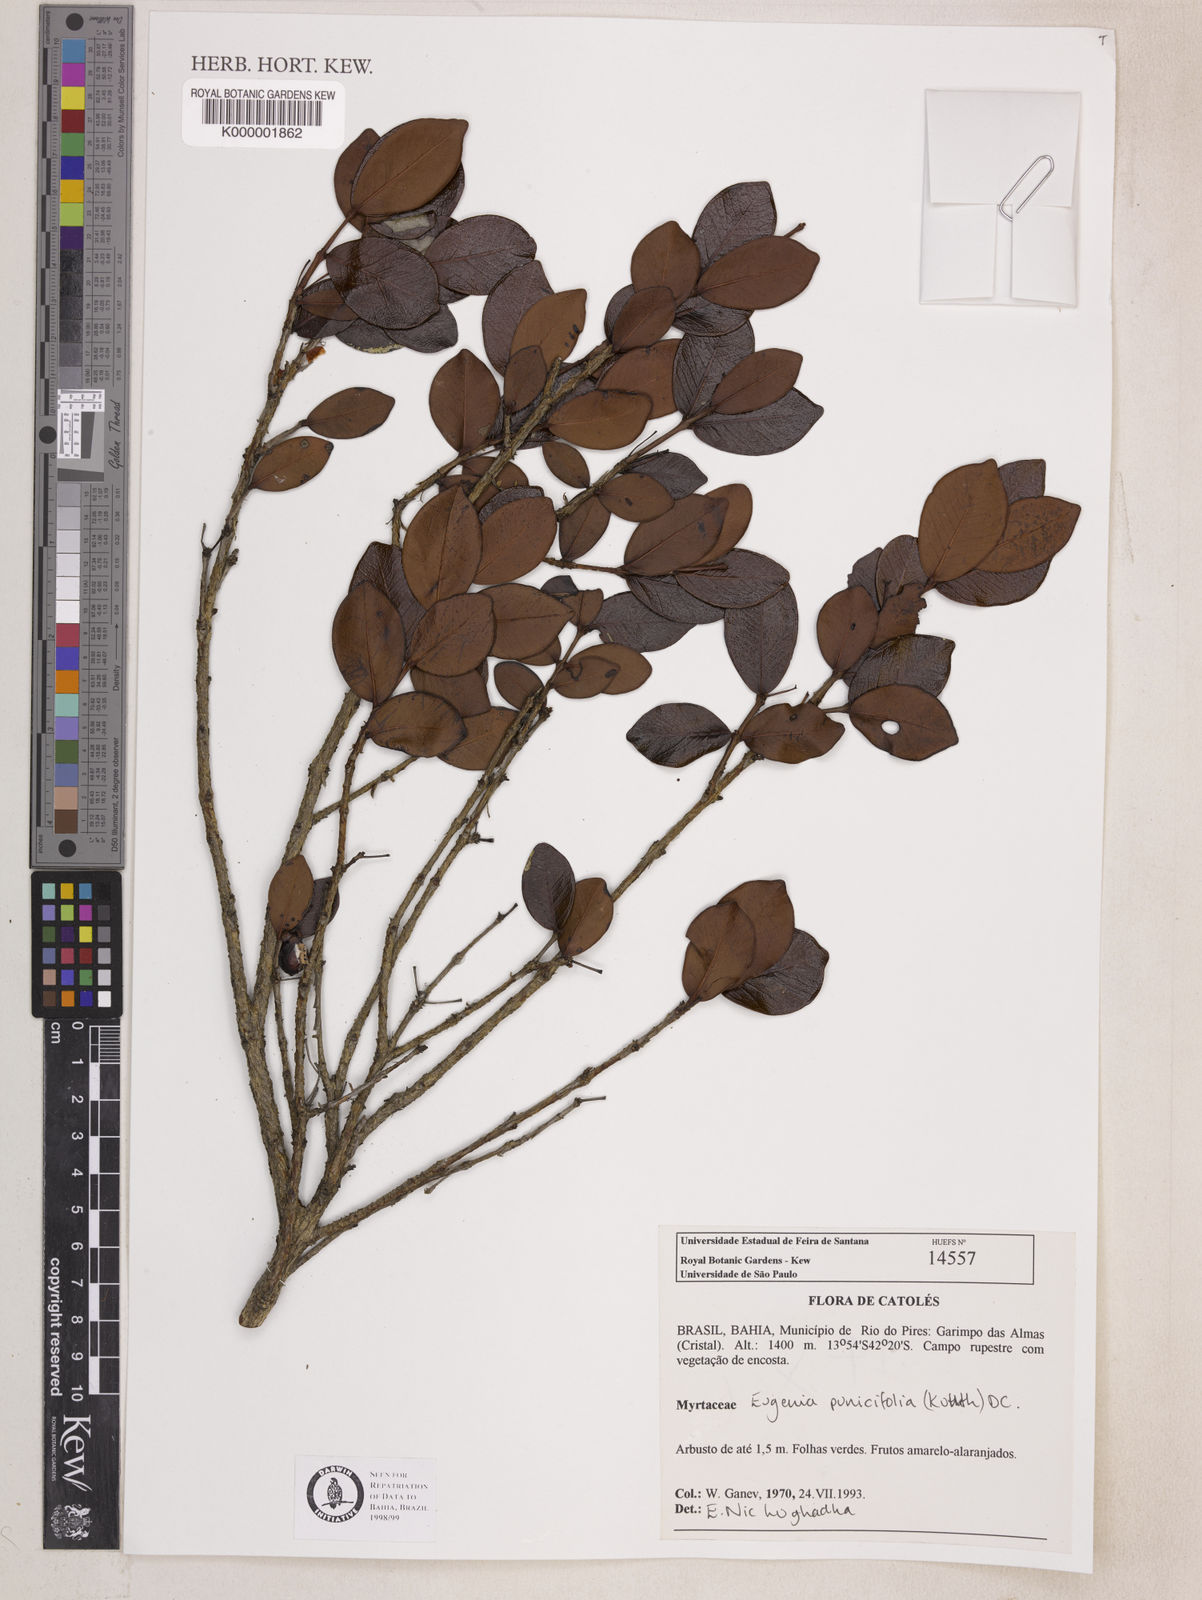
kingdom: Plantae
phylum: Tracheophyta
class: Magnoliopsida
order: Myrtales
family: Myrtaceae
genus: Eugenia
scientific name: Eugenia punicifolia
